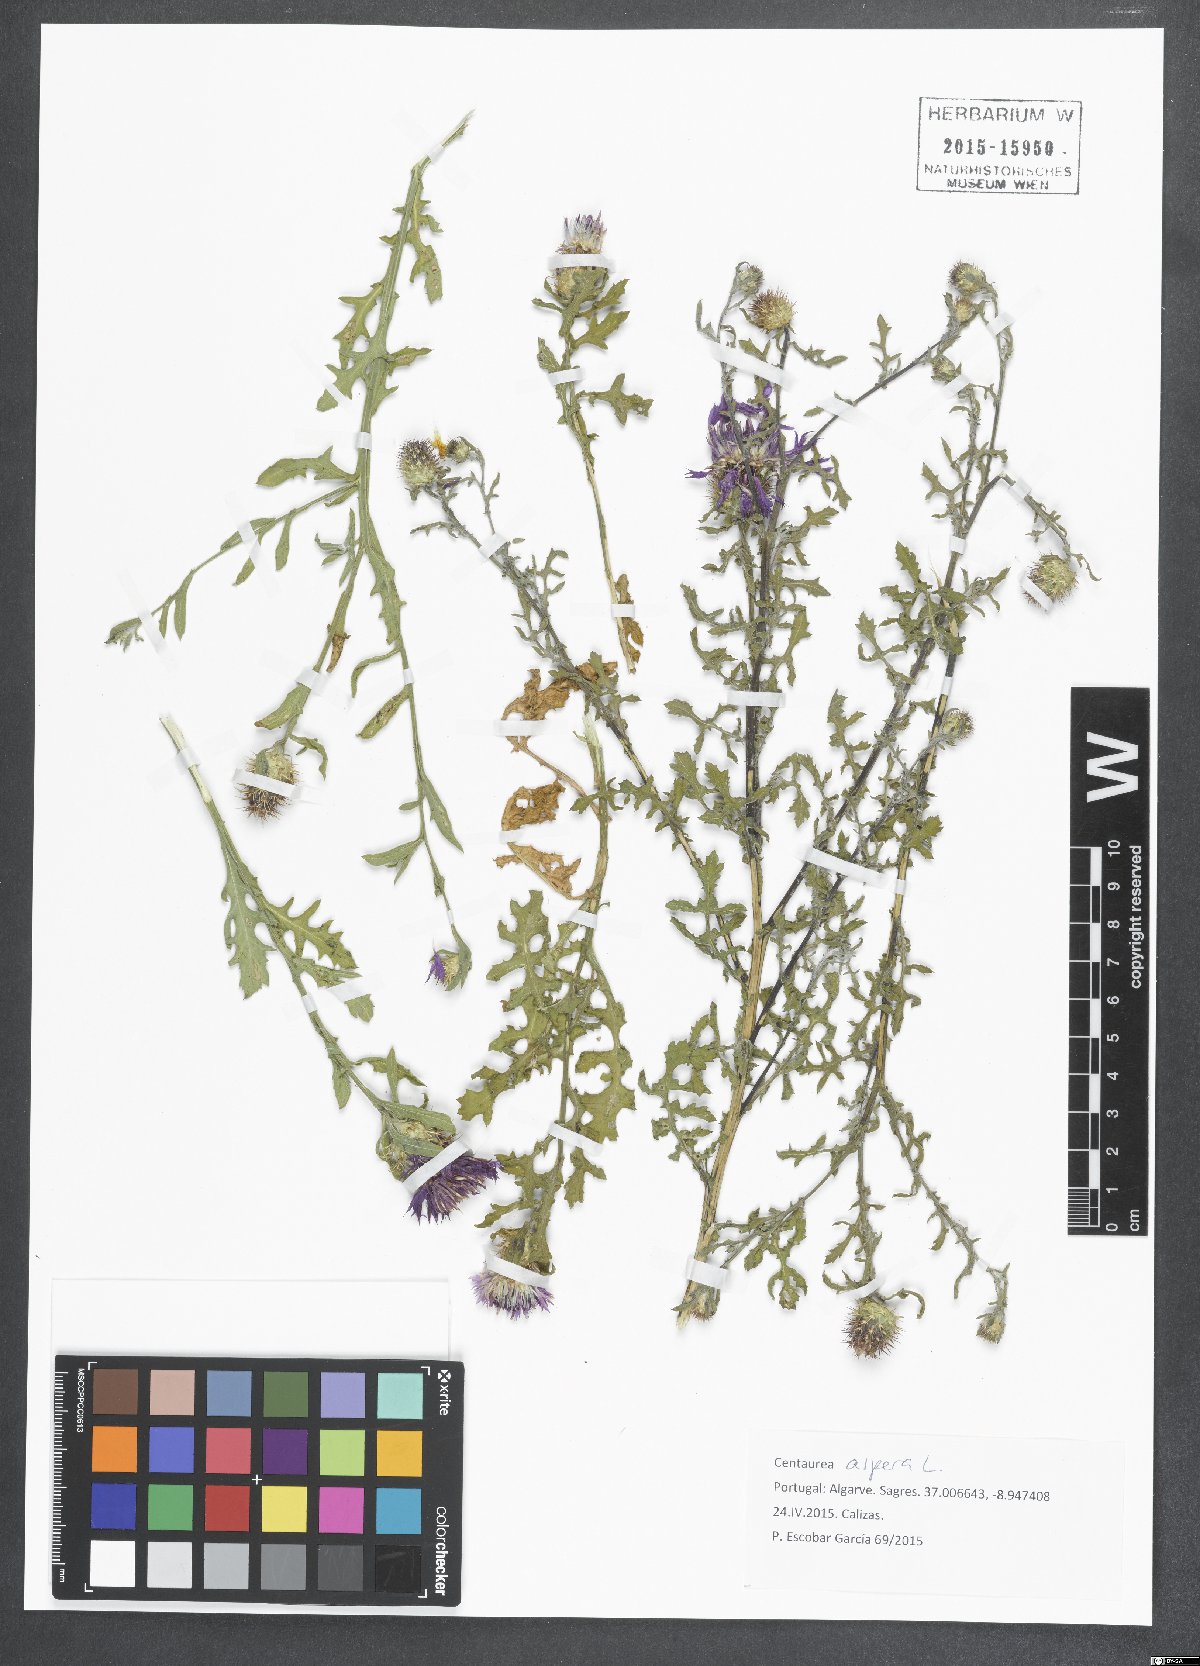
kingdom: Plantae
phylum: Tracheophyta
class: Magnoliopsida
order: Asterales
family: Asteraceae
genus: Centaurea
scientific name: Centaurea aspera
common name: Rough star-thistle
